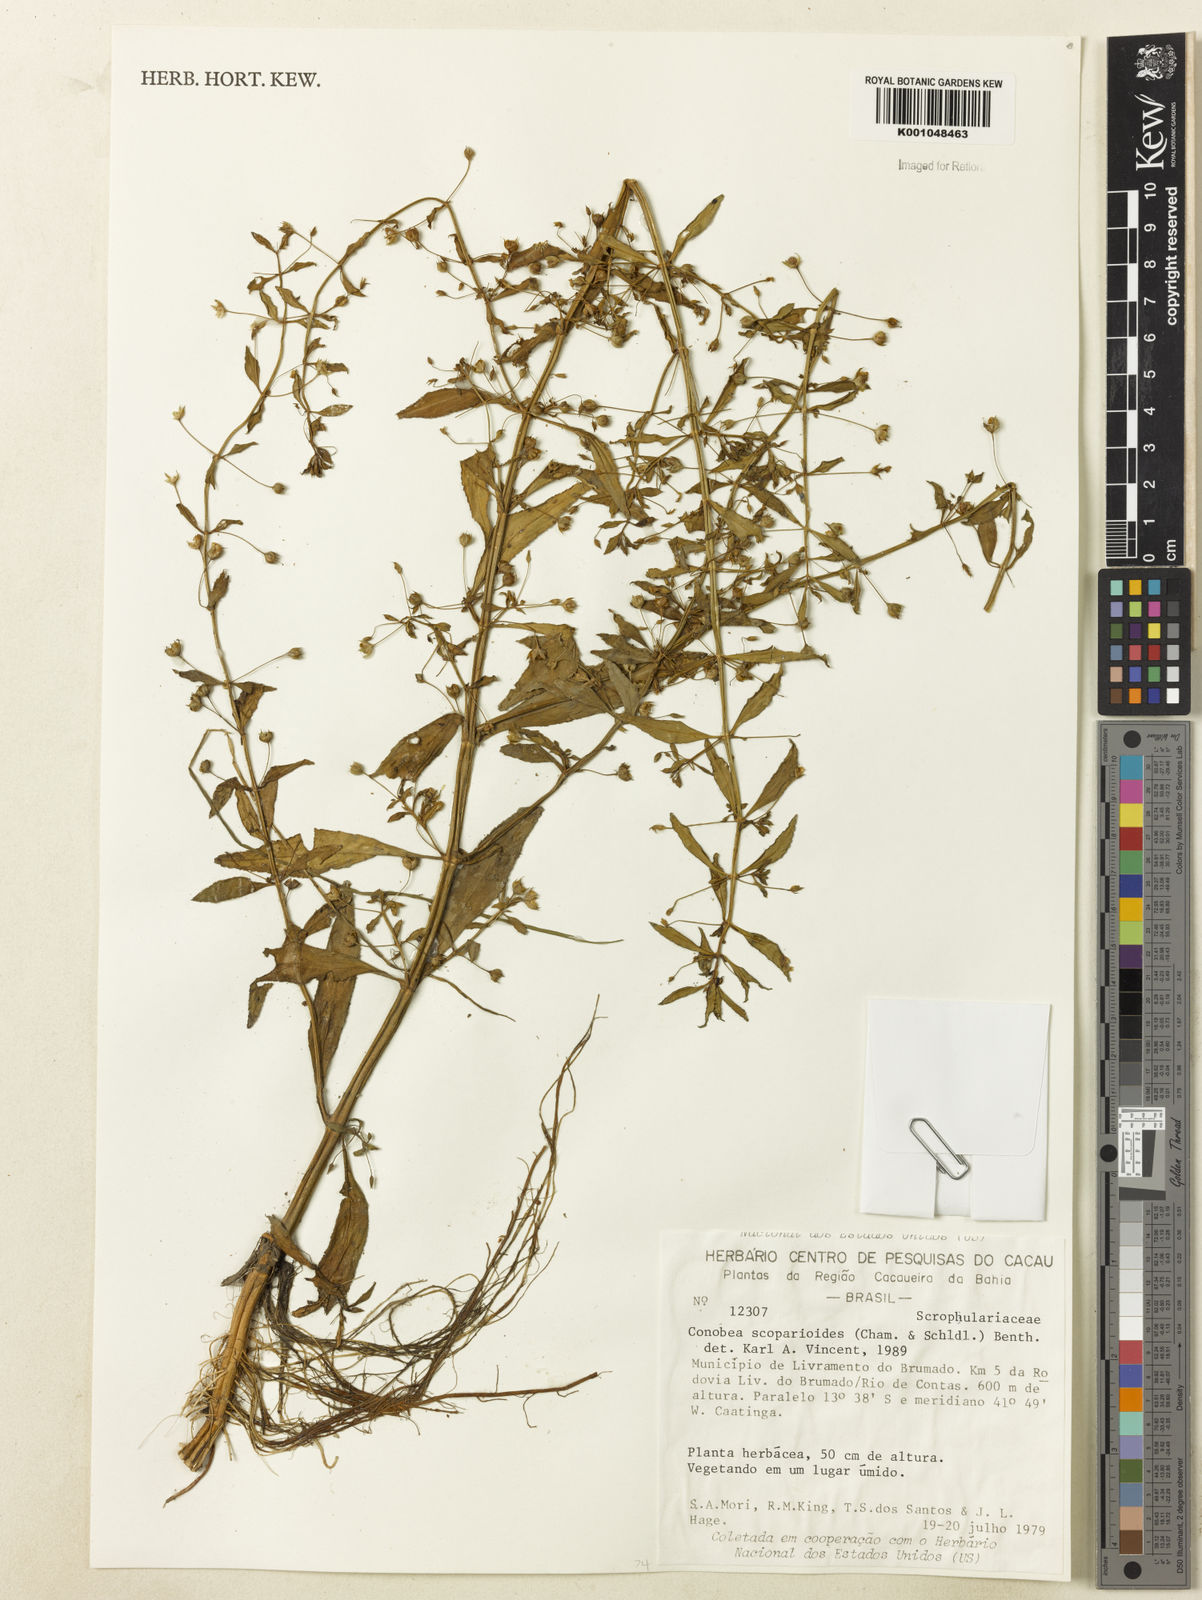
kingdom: Plantae
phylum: Tracheophyta
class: Magnoliopsida
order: Lamiales
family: Plantaginaceae
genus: Conobea
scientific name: Conobea scoparioides
